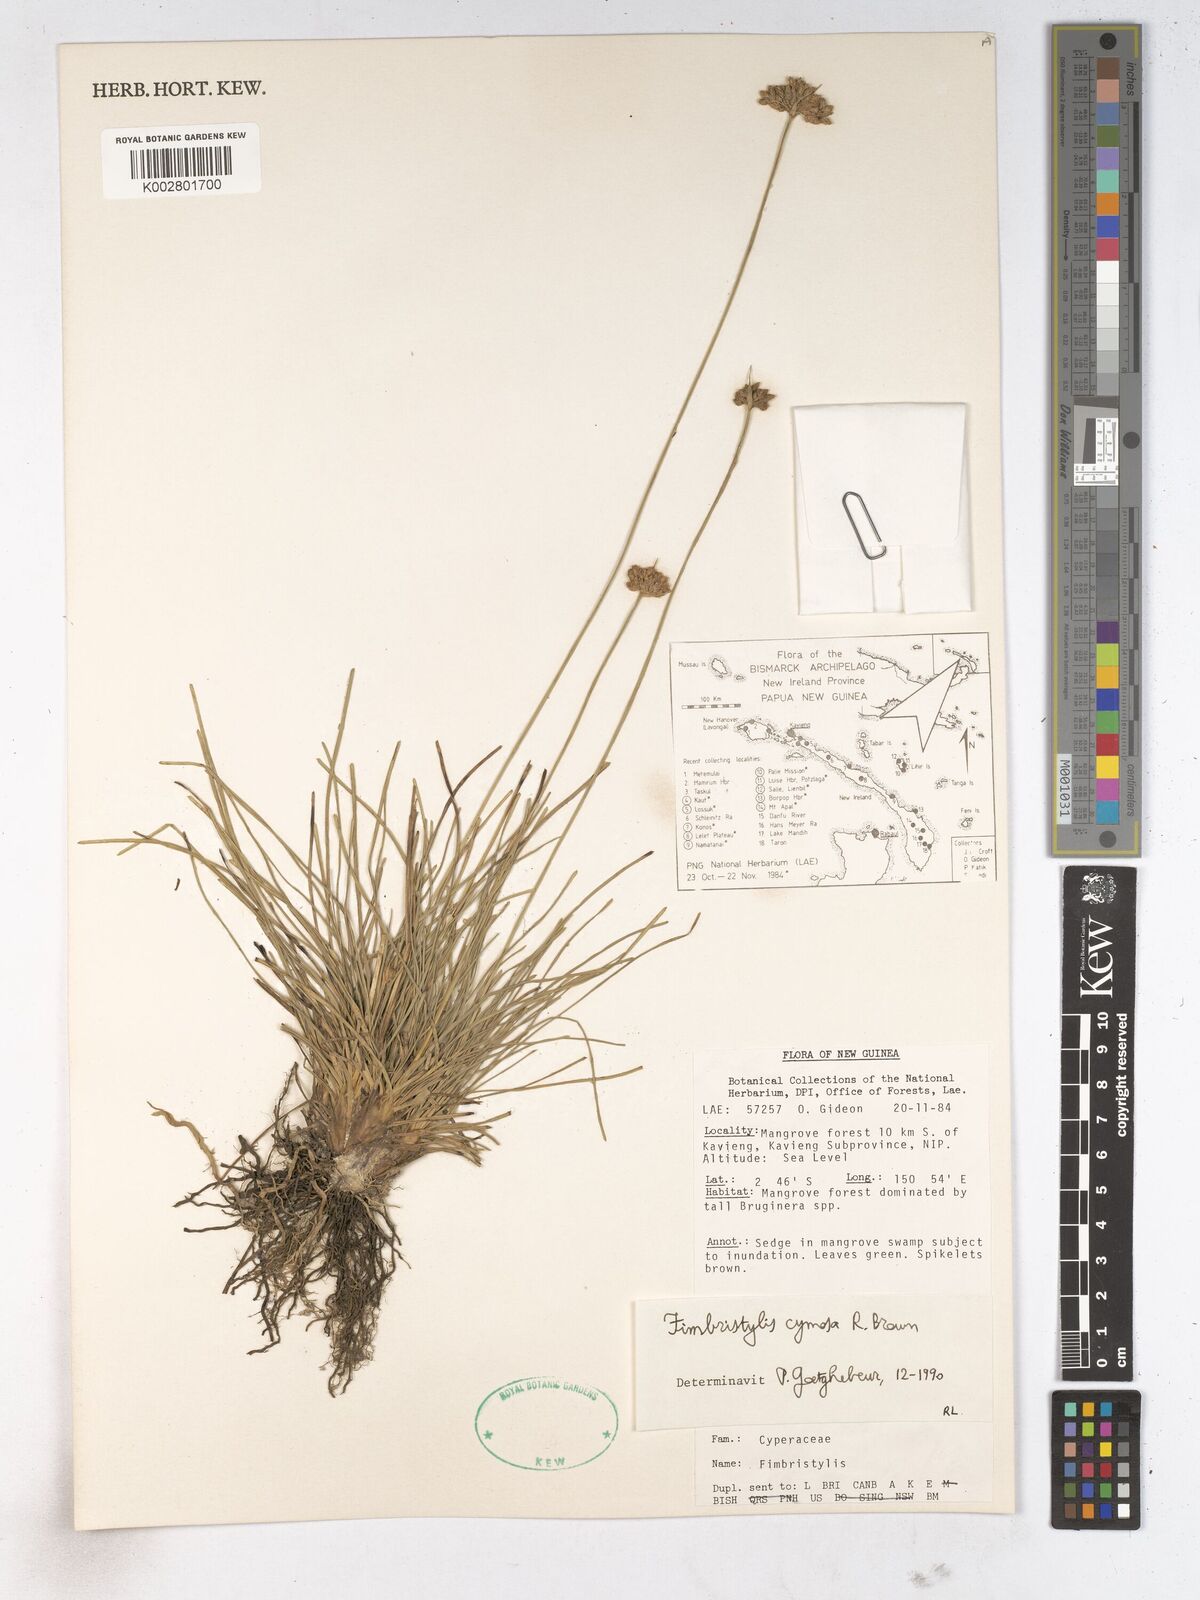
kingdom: Plantae
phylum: Tracheophyta
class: Liliopsida
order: Poales
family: Cyperaceae
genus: Fimbristylis
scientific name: Fimbristylis cymosa
